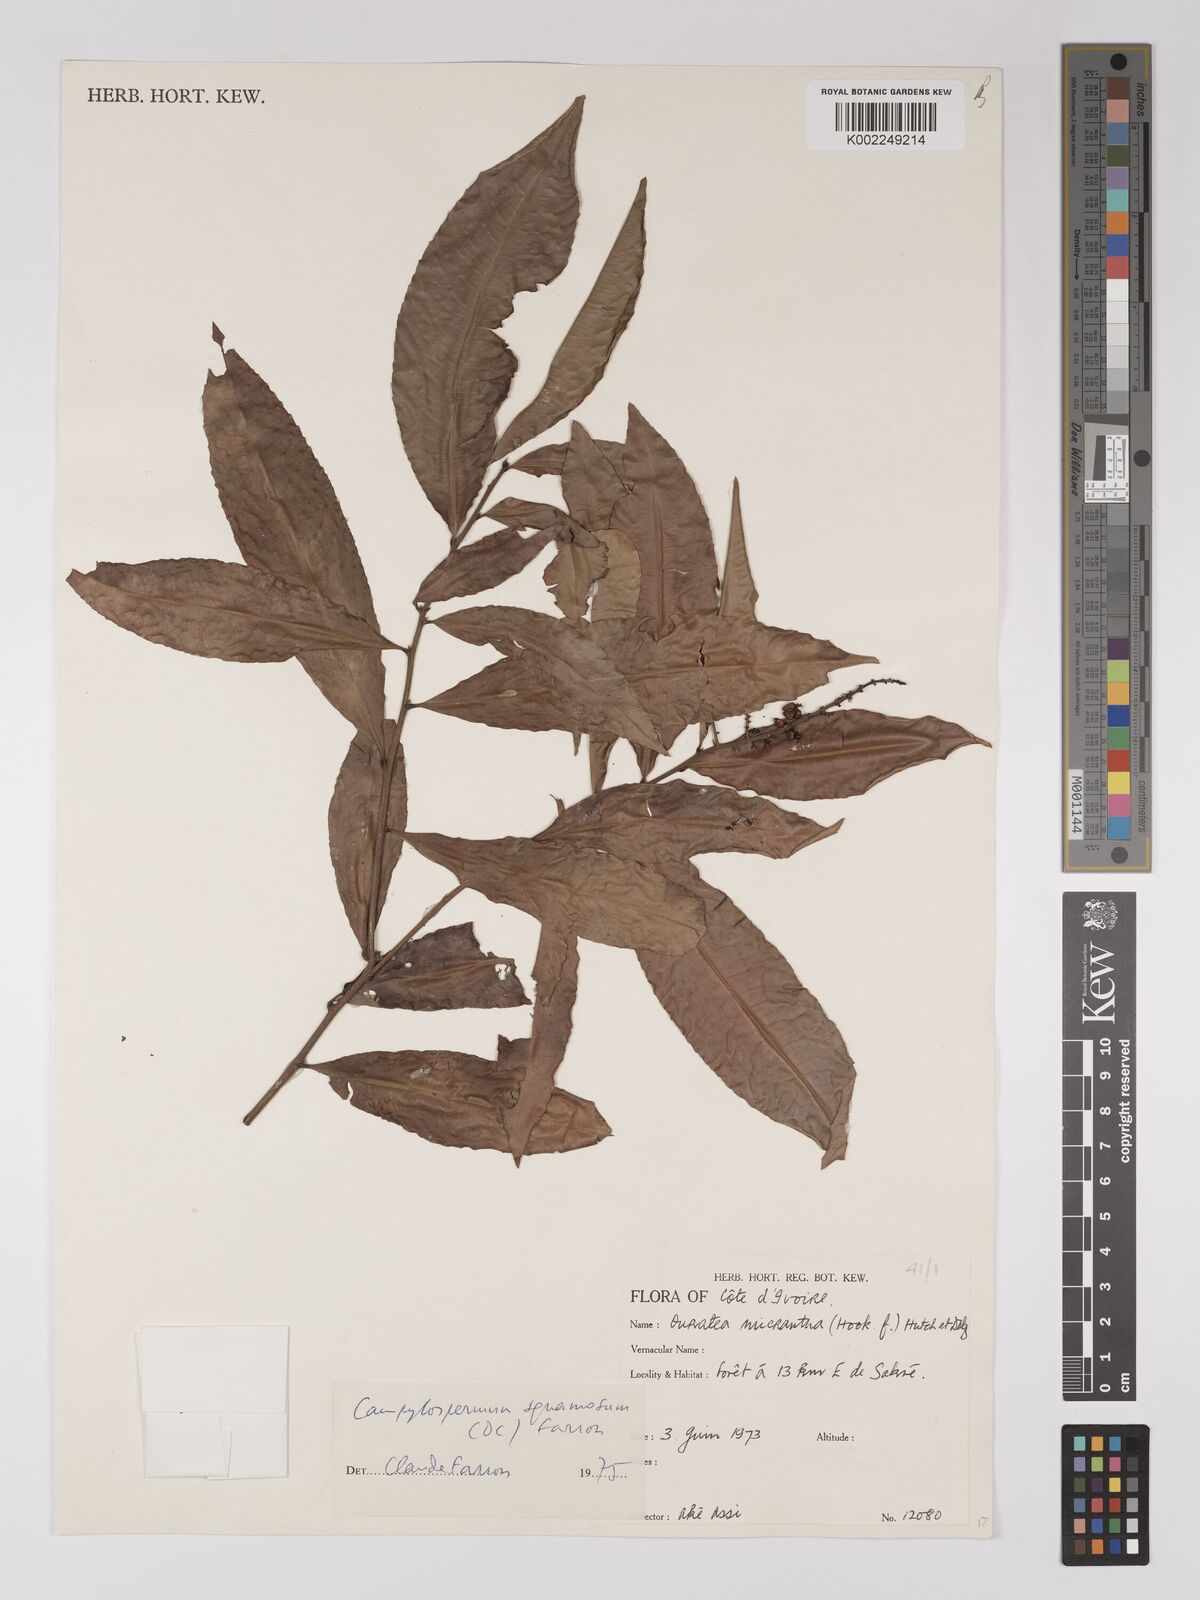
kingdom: Plantae
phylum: Tracheophyta
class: Magnoliopsida
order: Malpighiales
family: Ochnaceae
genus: Campylospermum
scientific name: Campylospermum squamosum
